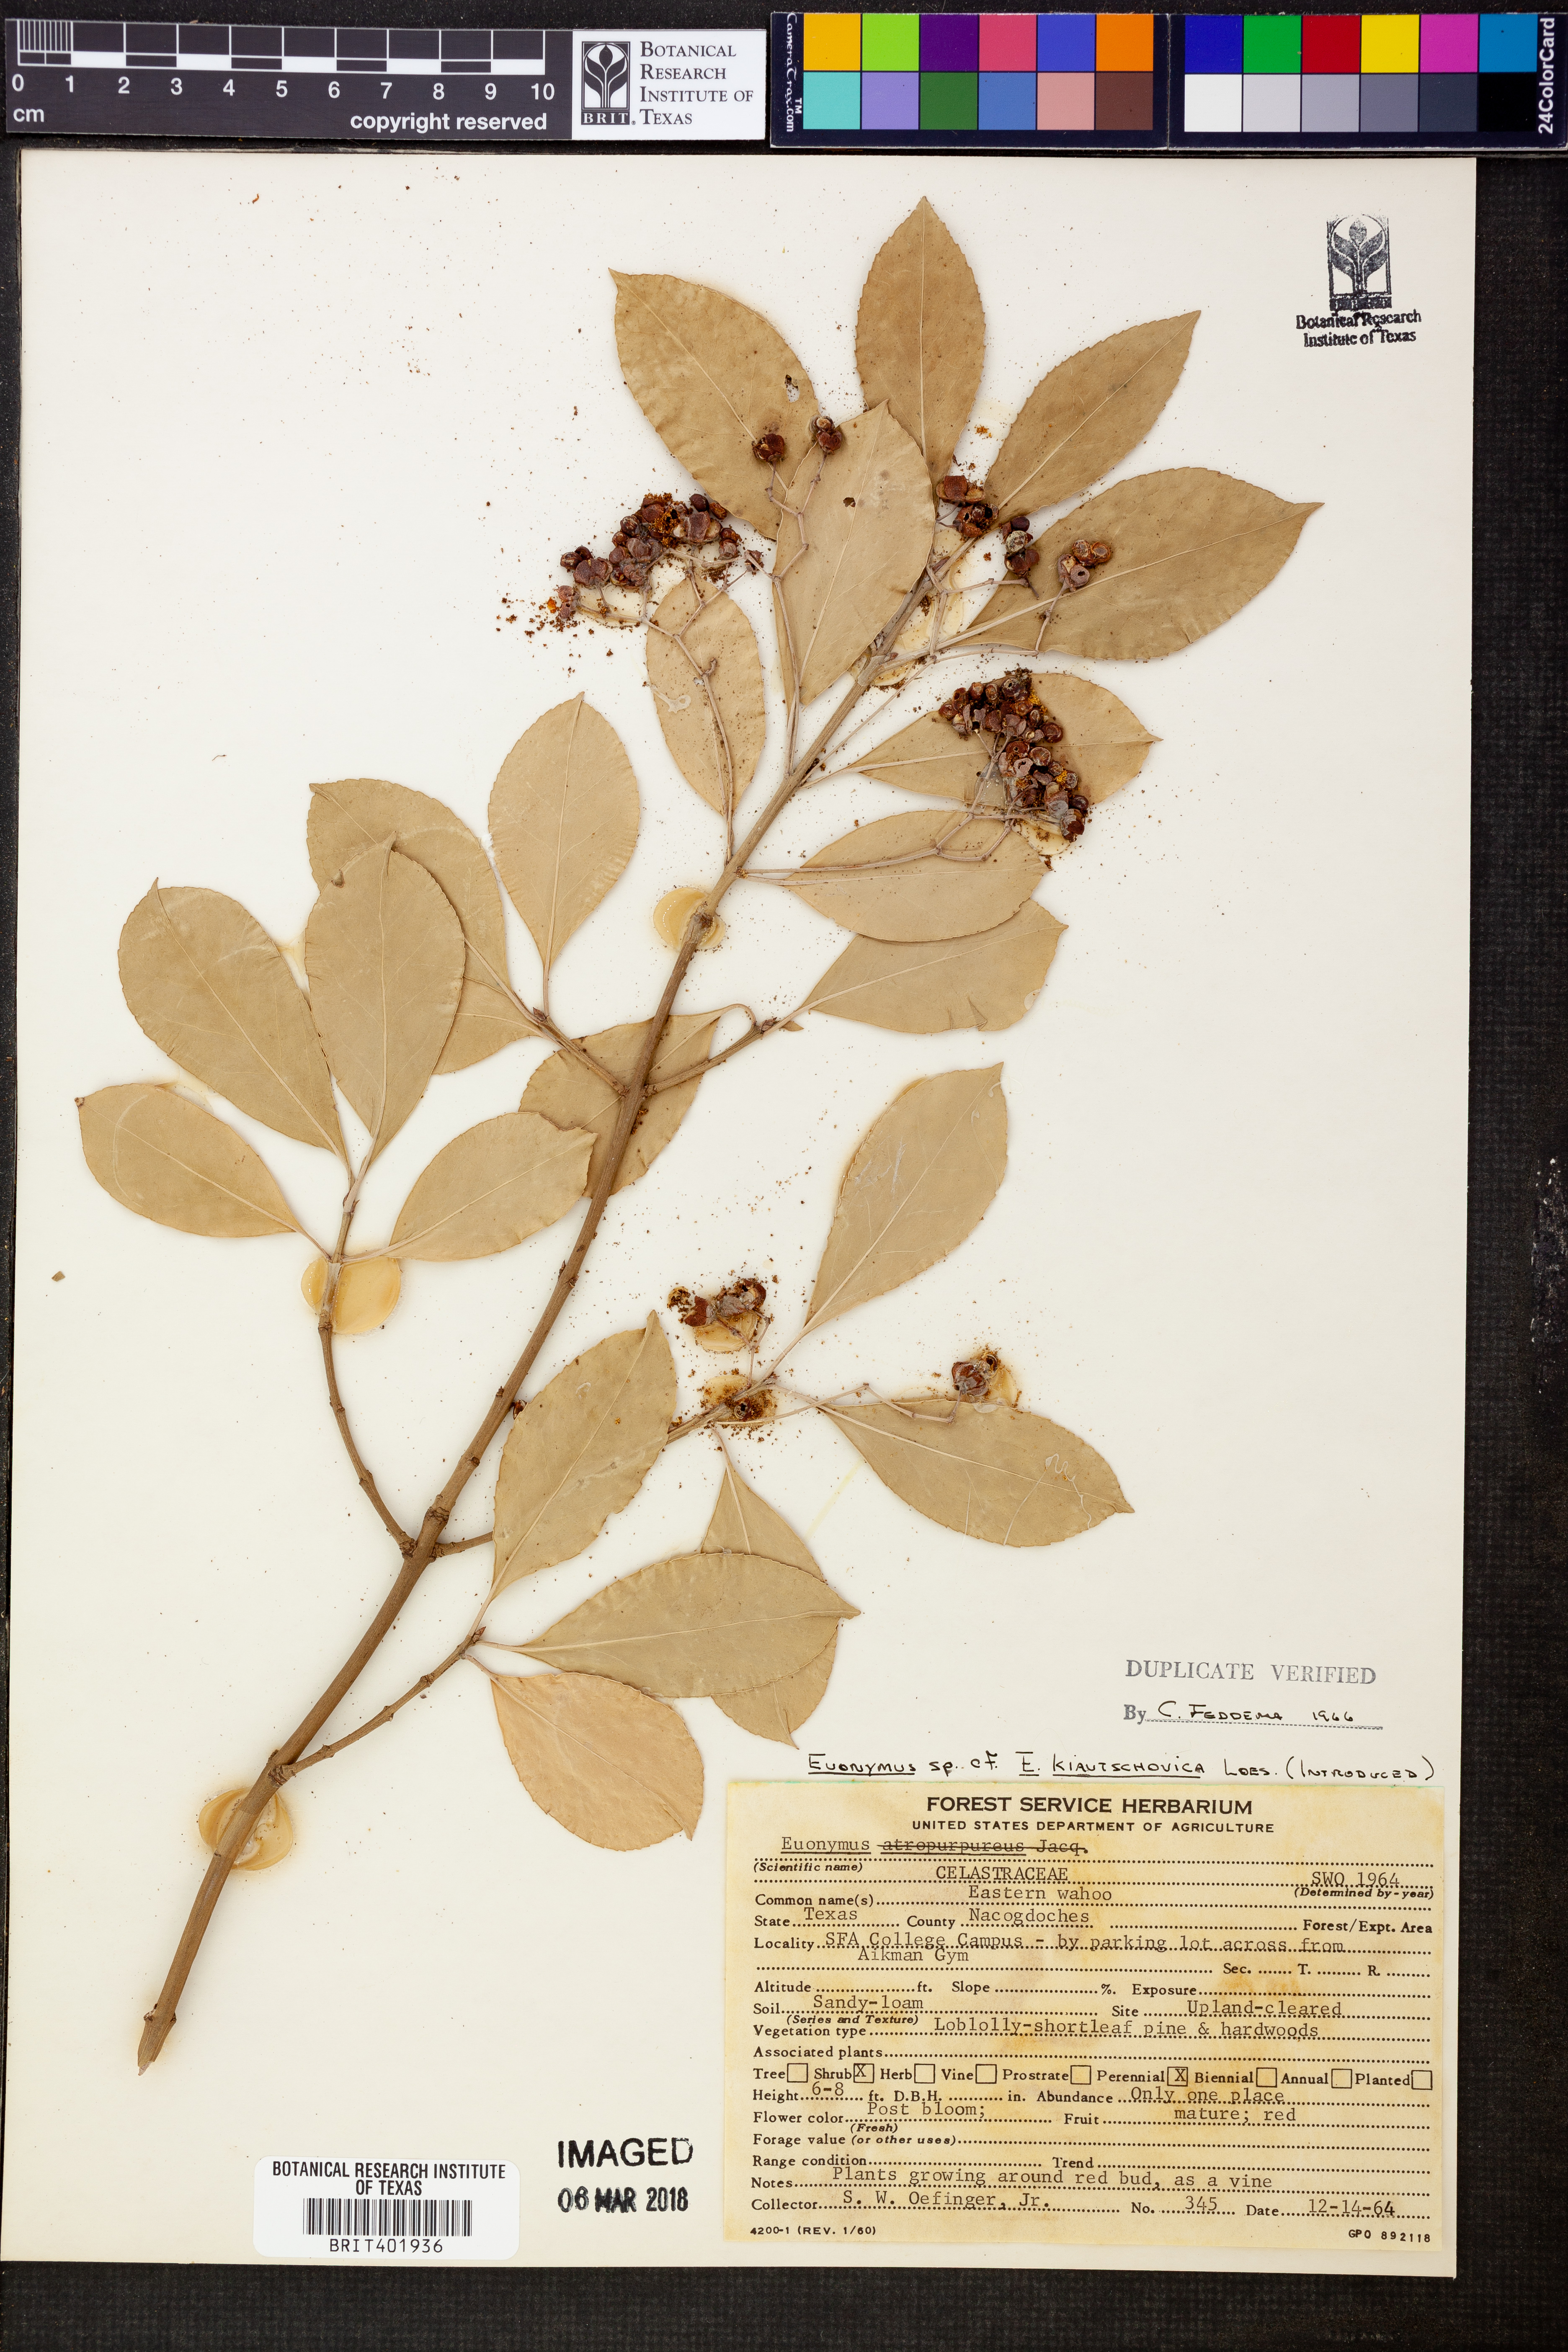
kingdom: Plantae
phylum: Tracheophyta
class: Magnoliopsida
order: Celastrales
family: Celastraceae
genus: Euonymus
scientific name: Euonymus fortunei
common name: Climbing euonymus
